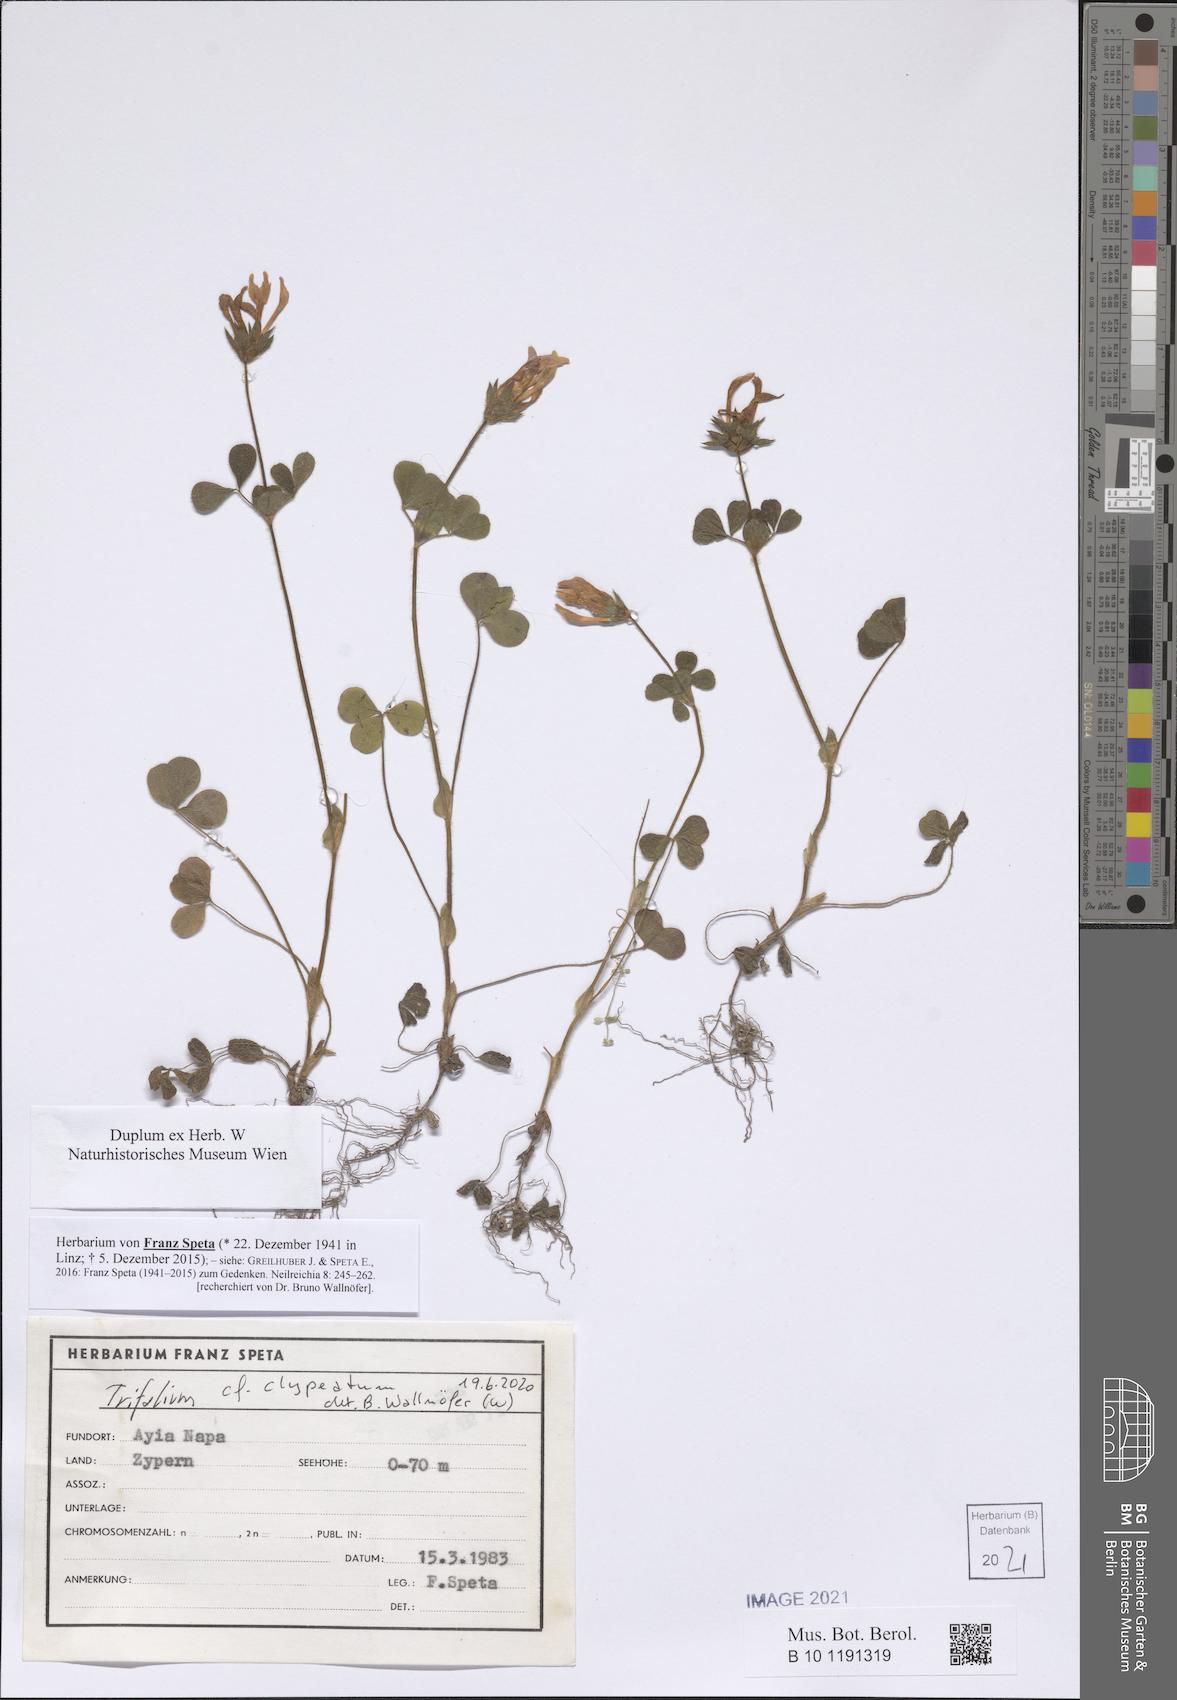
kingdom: Plantae
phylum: Tracheophyta
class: Magnoliopsida
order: Fabales
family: Fabaceae
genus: Trifolium
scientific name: Trifolium clypeatum
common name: Shield clover
